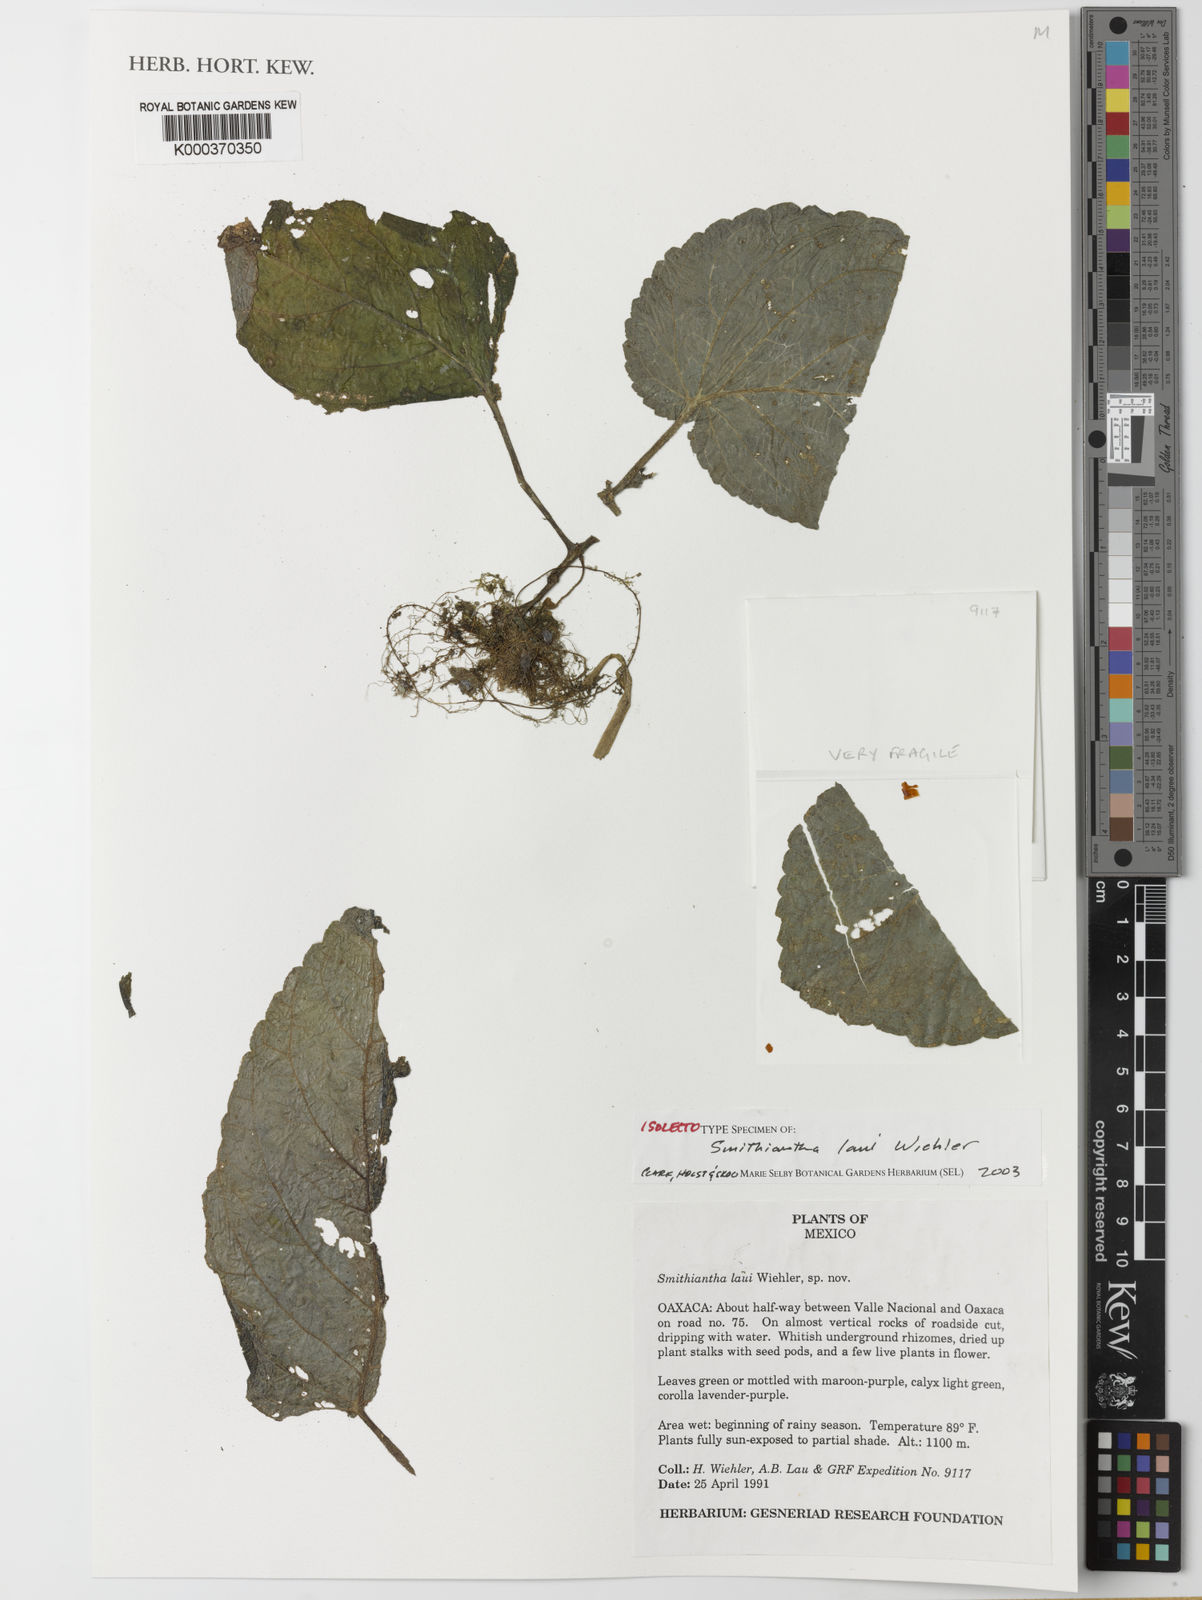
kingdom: Plantae
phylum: Tracheophyta
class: Magnoliopsida
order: Lamiales
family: Gesneriaceae
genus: Smithiantha
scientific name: Smithiantha laui
